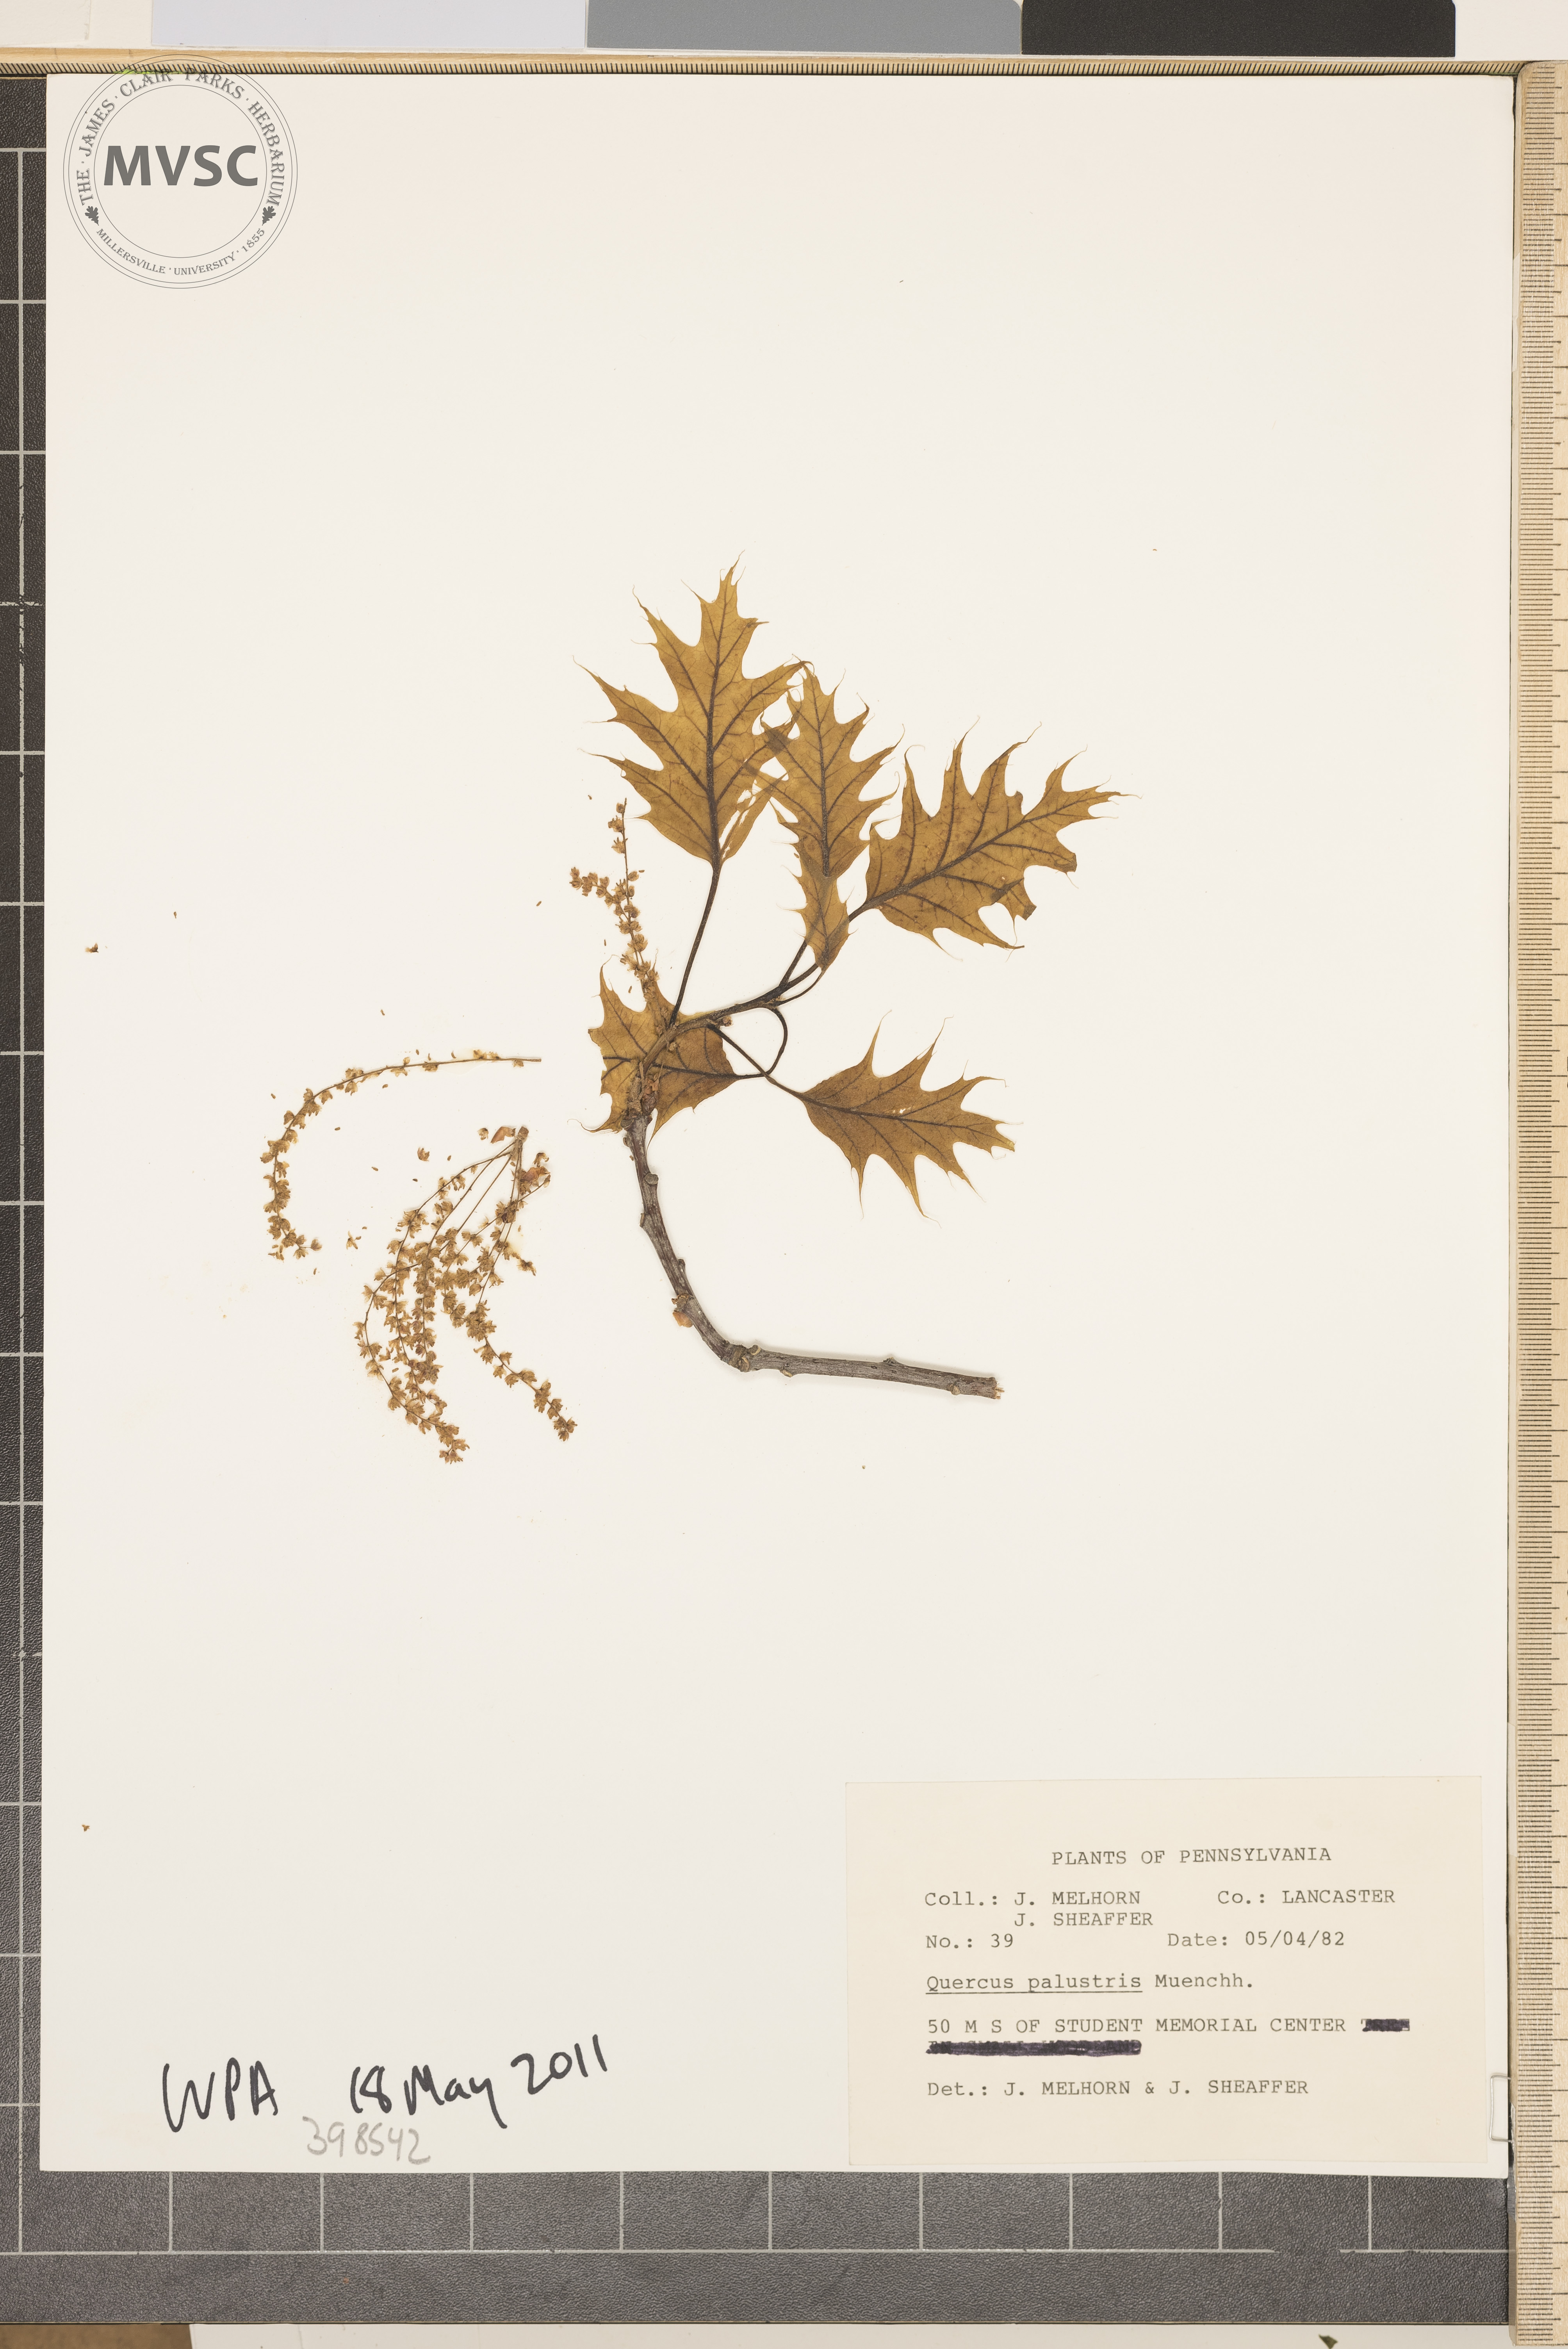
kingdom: Plantae
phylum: Tracheophyta
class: Magnoliopsida
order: Fagales
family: Fagaceae
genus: Quercus
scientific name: Quercus palustris
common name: Pin oak
